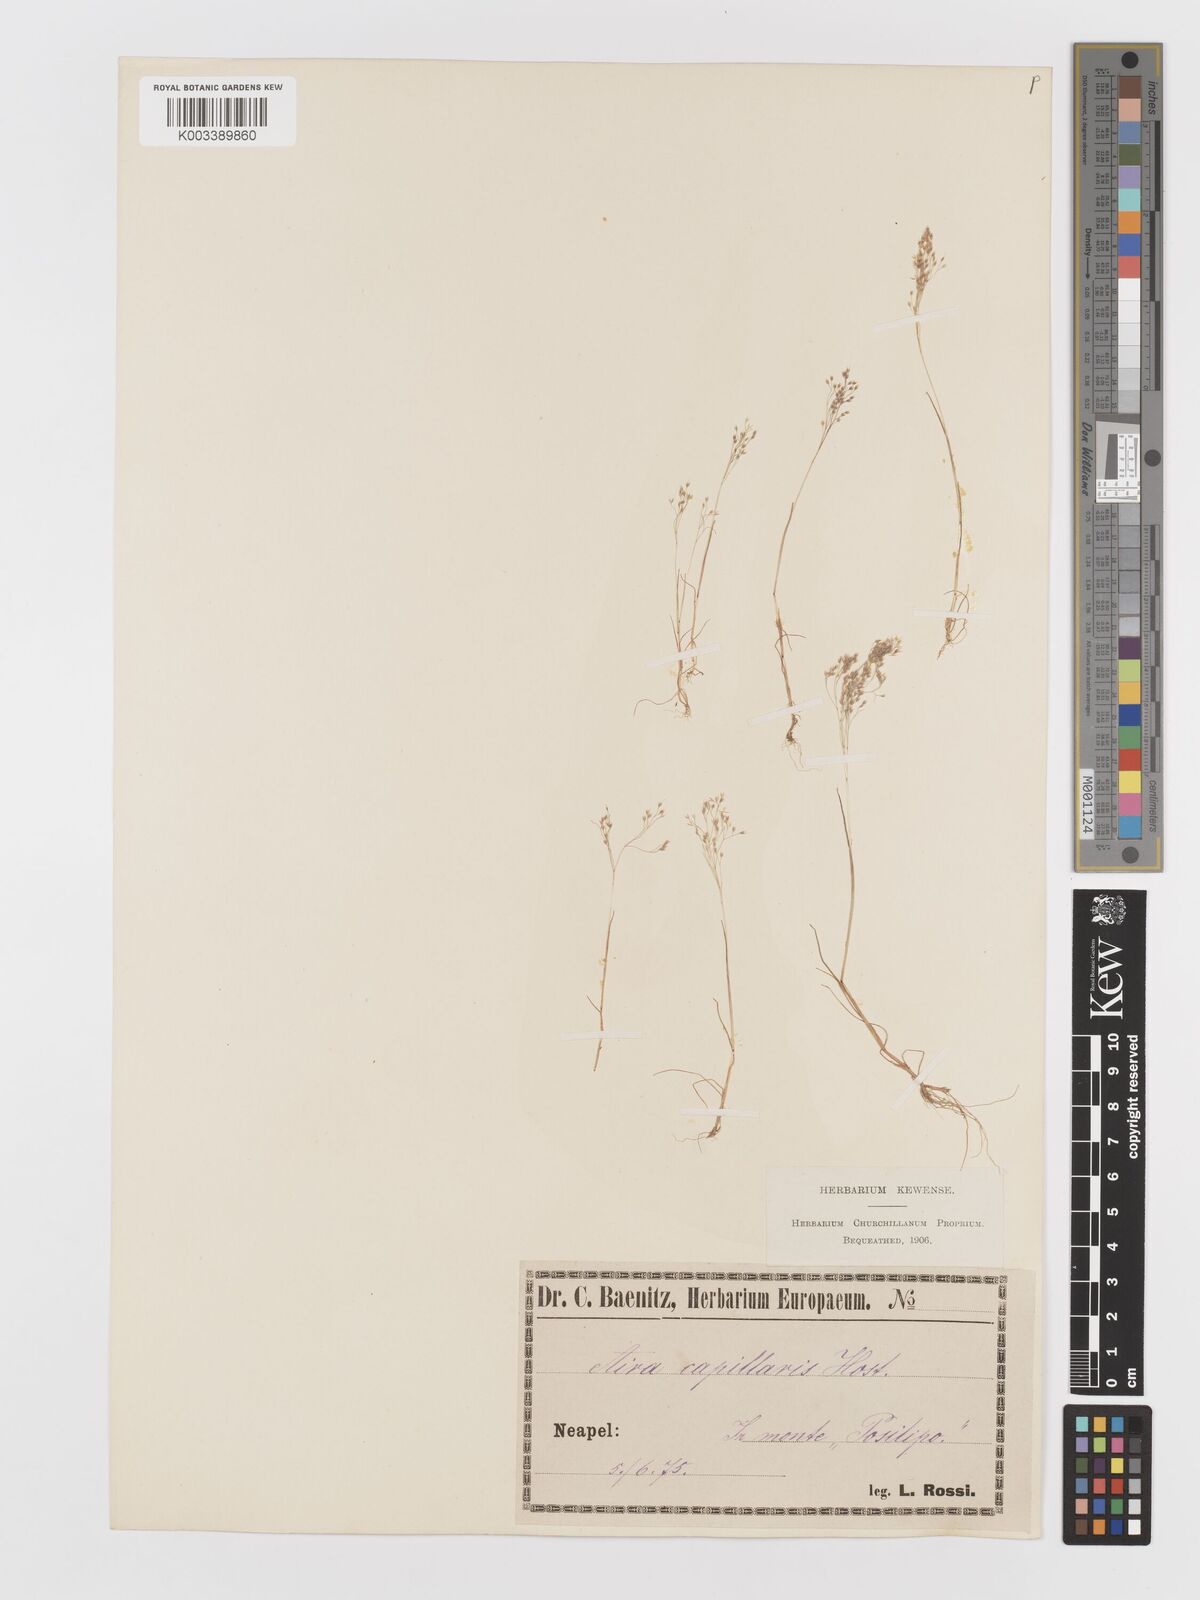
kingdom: Plantae
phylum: Tracheophyta
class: Liliopsida
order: Poales
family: Poaceae
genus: Aira
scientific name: Aira elegans
